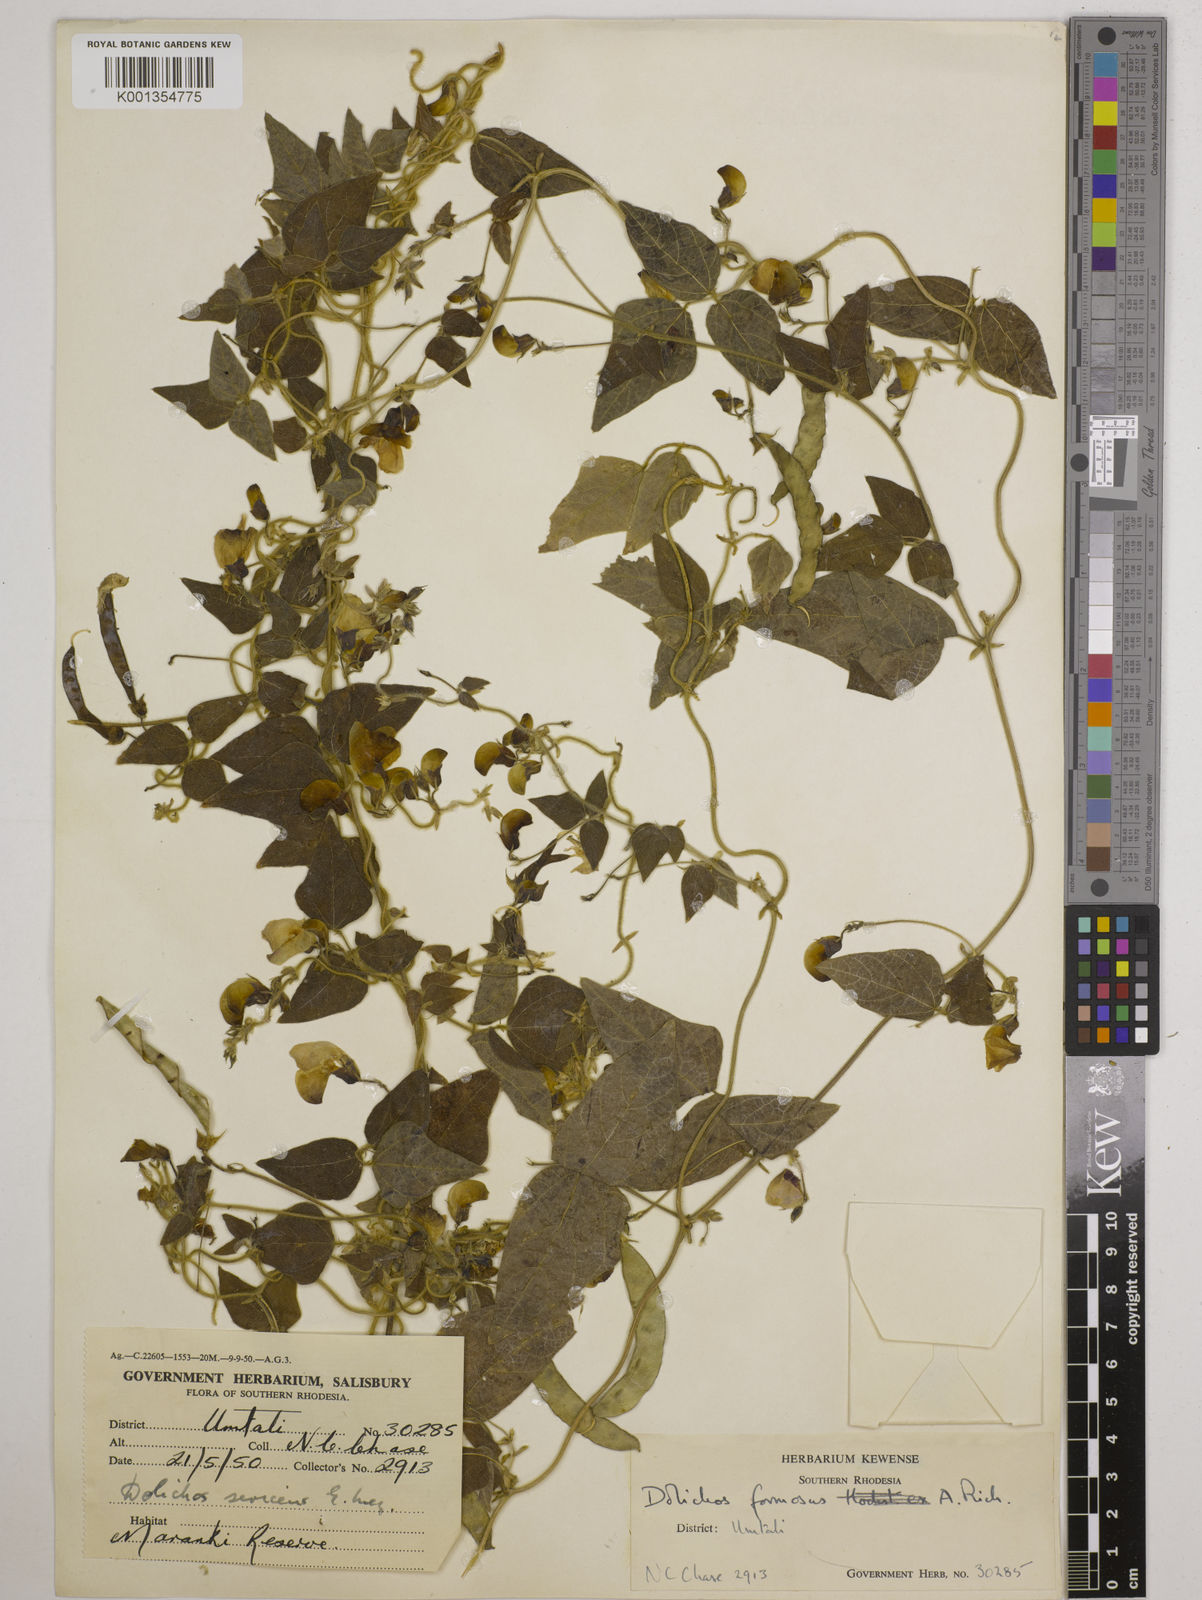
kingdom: Plantae
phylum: Tracheophyta
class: Magnoliopsida
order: Fabales
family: Fabaceae
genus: Dolichos
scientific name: Dolichos
